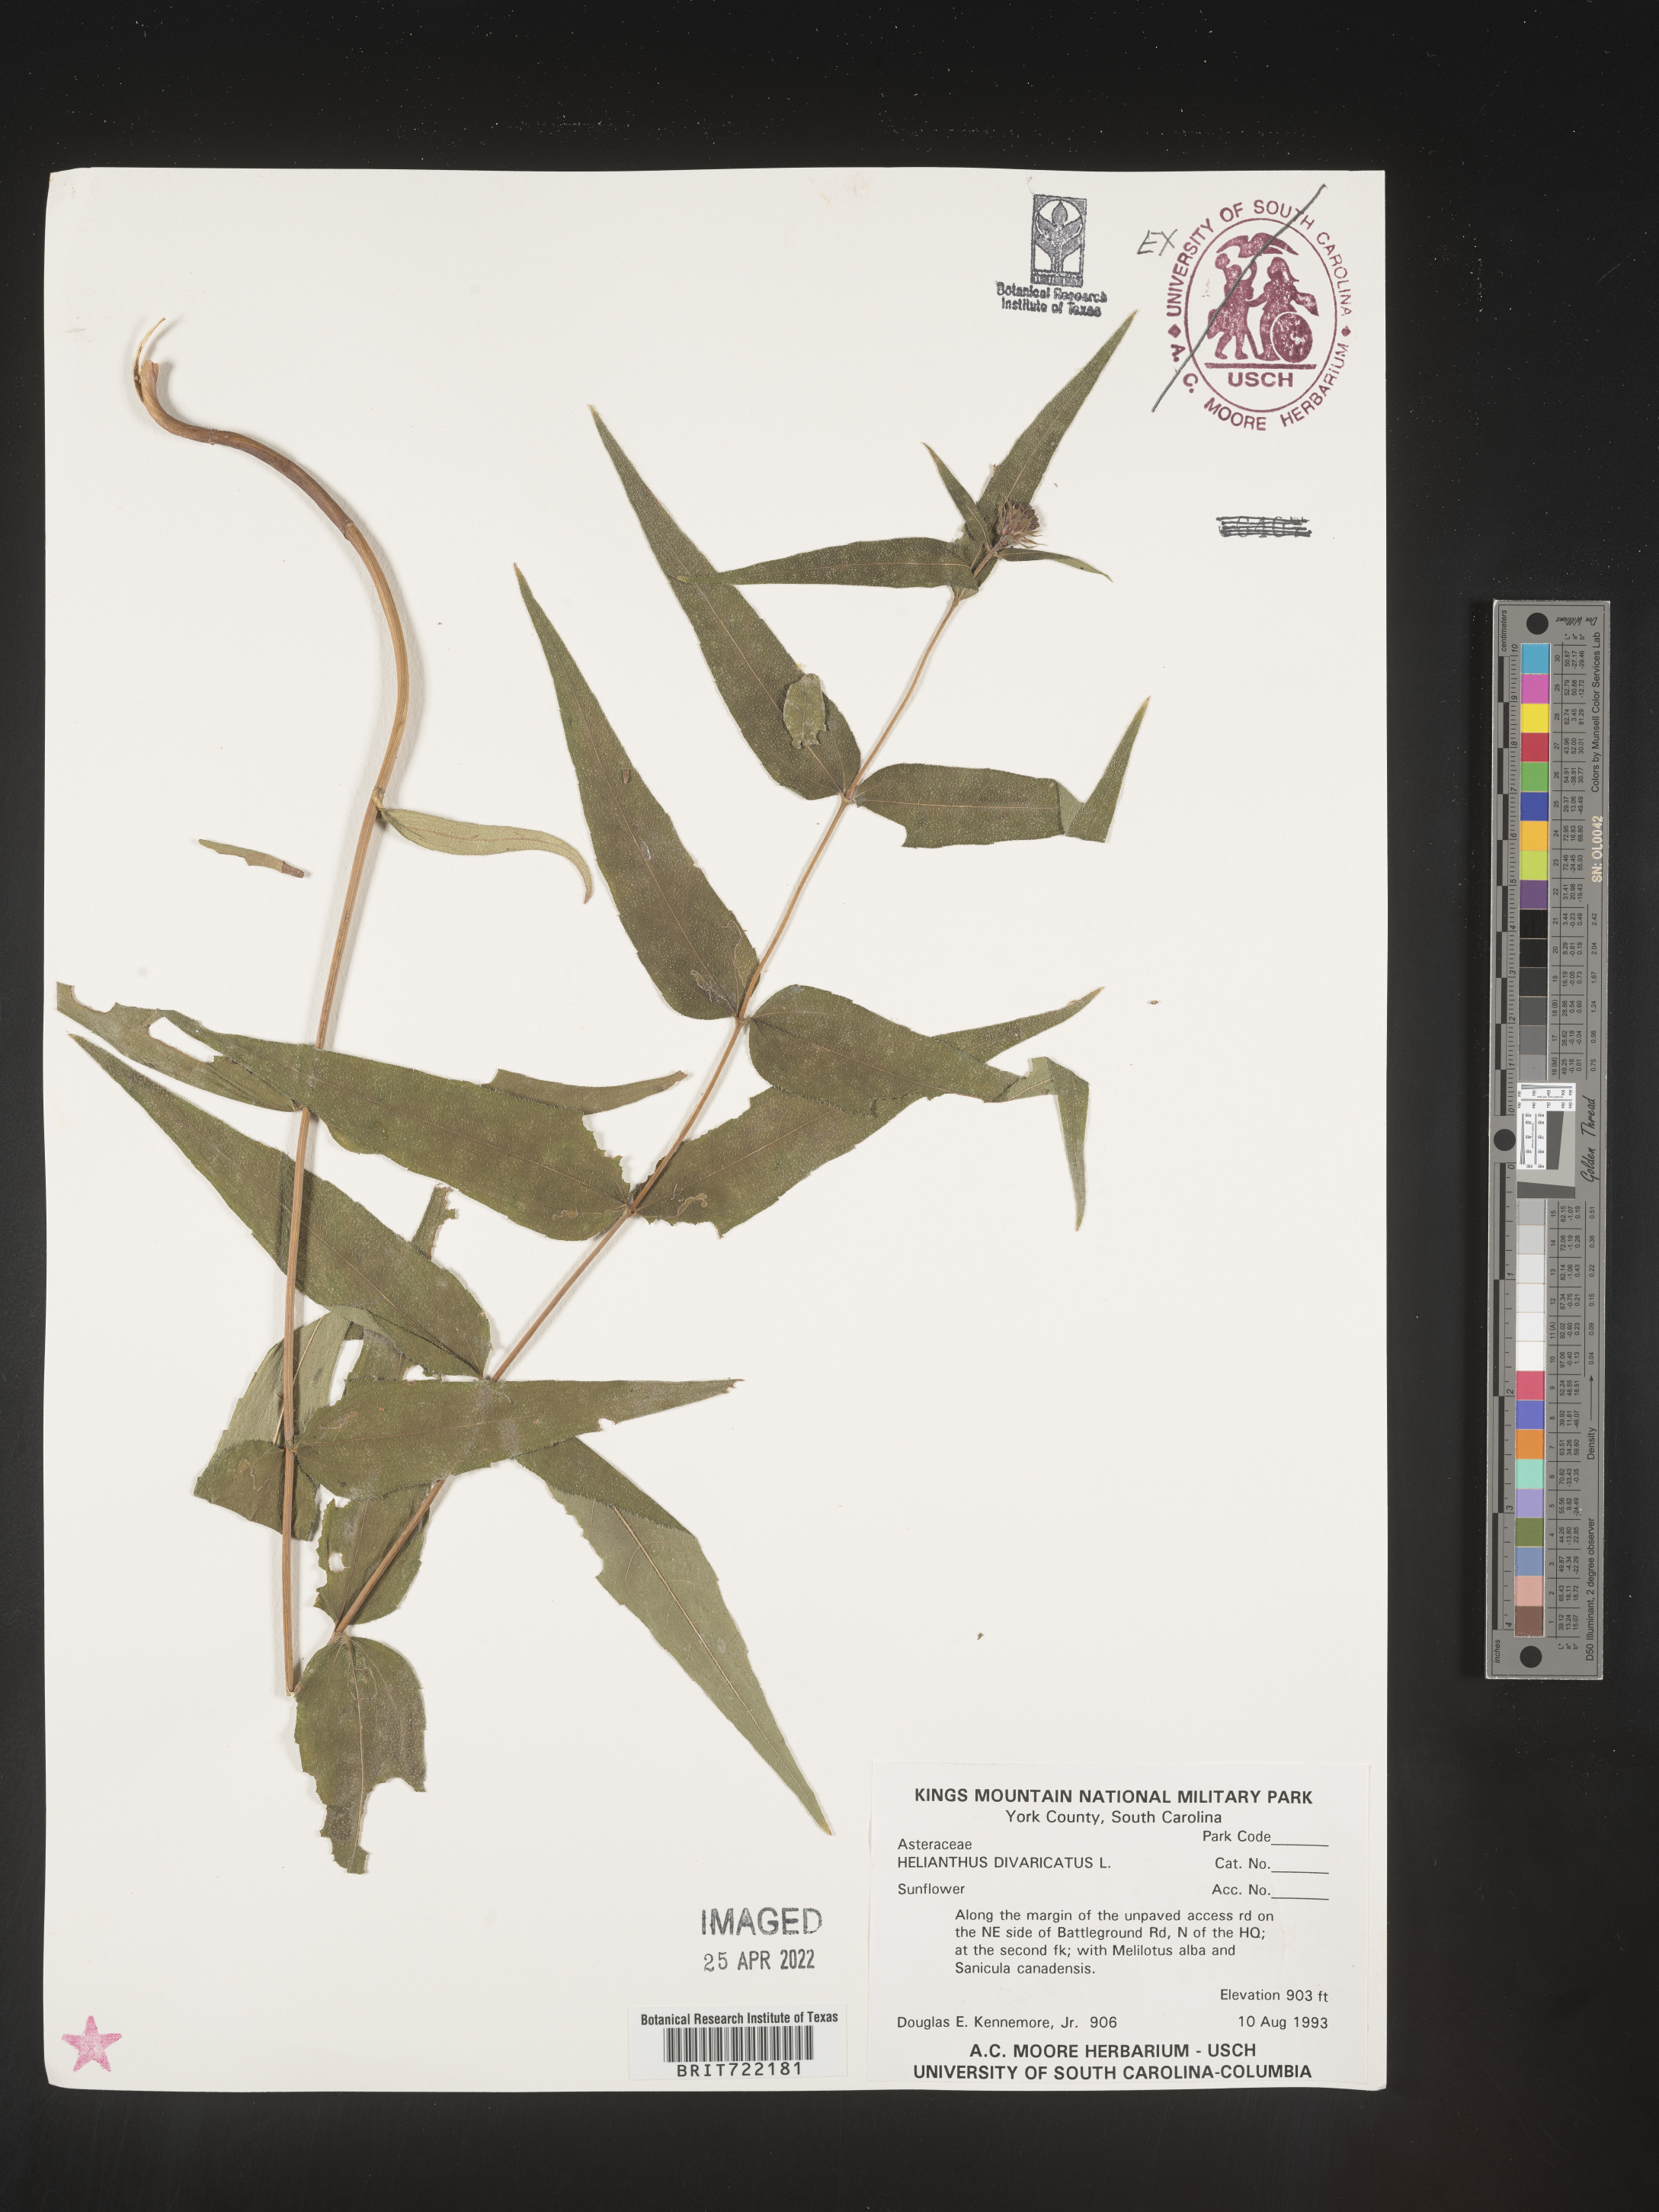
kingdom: Plantae
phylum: Tracheophyta
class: Magnoliopsida
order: Asterales
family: Asteraceae
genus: Helianthus
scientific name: Helianthus divaricatus
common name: Divergent sunflower
